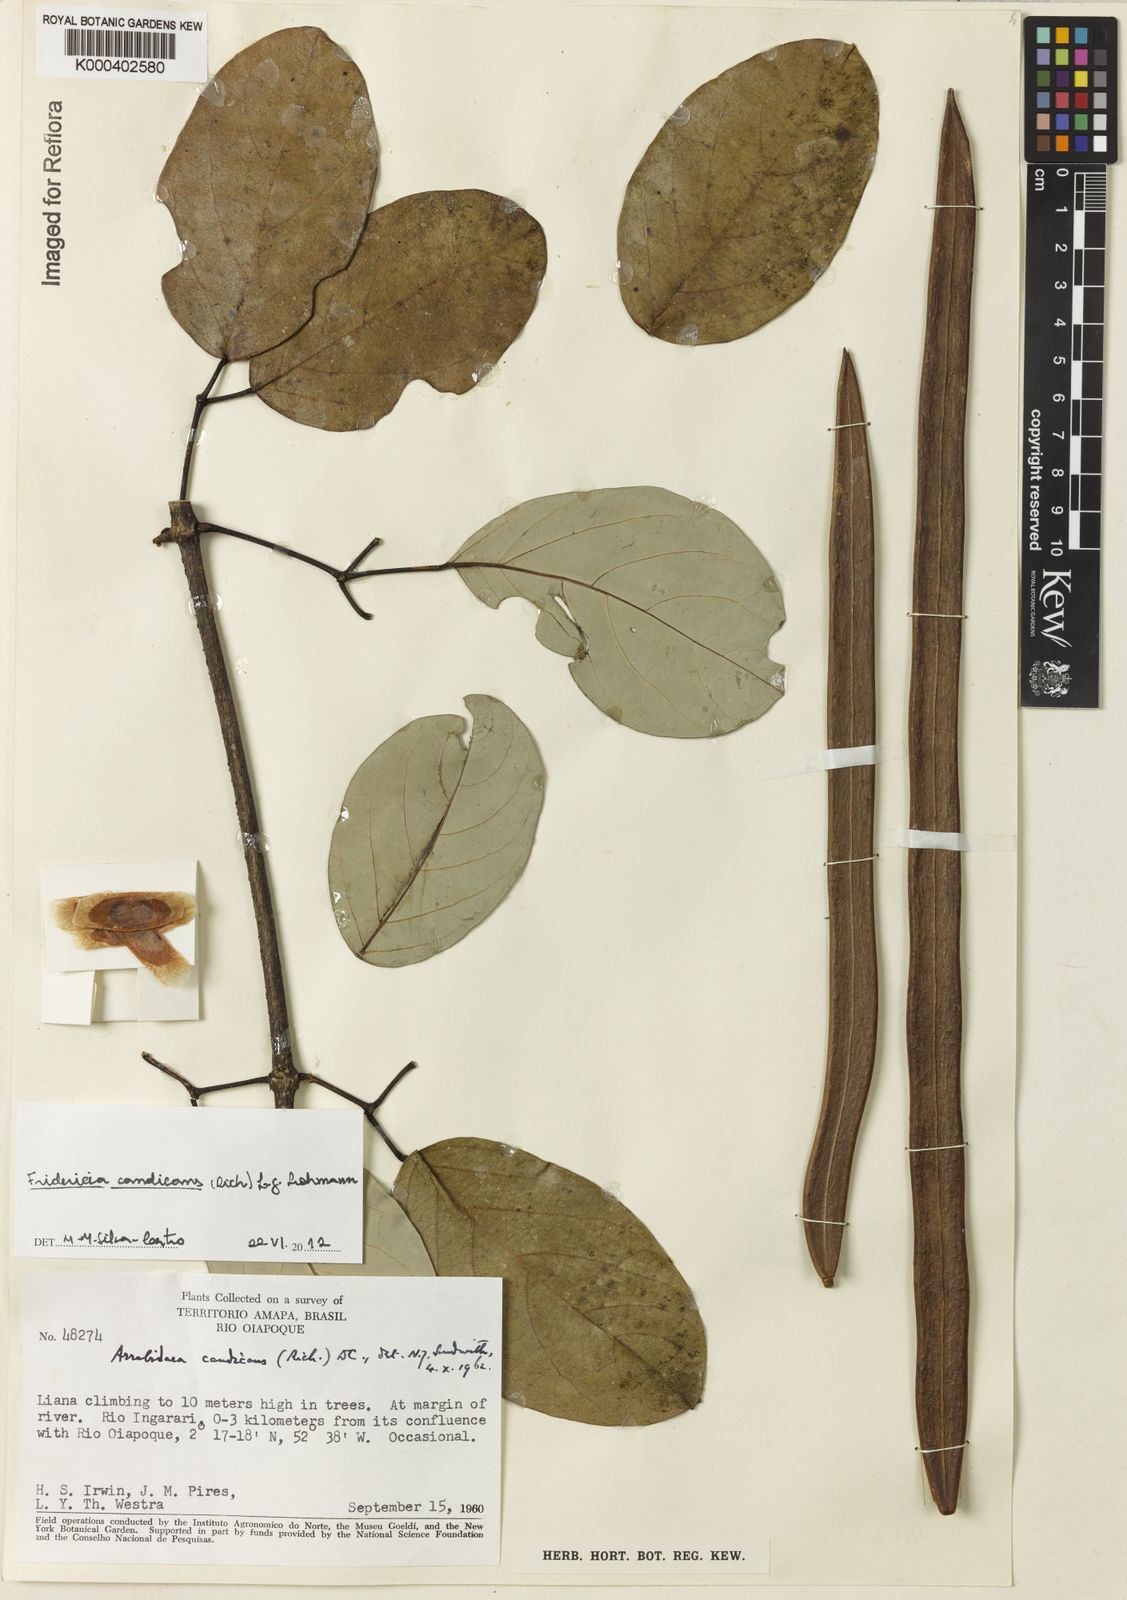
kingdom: Plantae
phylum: Tracheophyta
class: Magnoliopsida
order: Lamiales
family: Bignoniaceae
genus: Fridericia
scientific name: Fridericia
